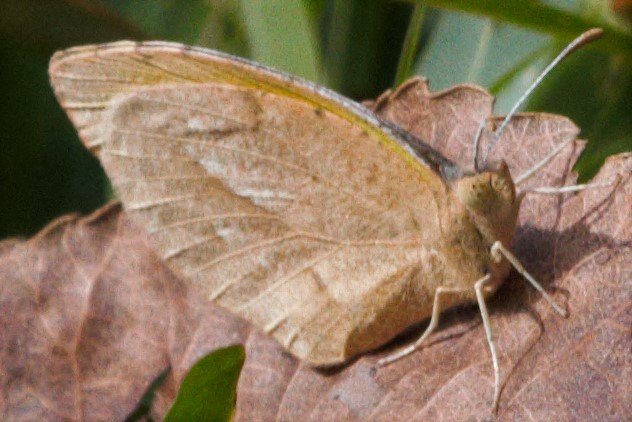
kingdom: Animalia
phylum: Arthropoda
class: Insecta
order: Lepidoptera
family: Pieridae
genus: Abaeis
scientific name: Abaeis nicippe
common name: Sleepy Orange
